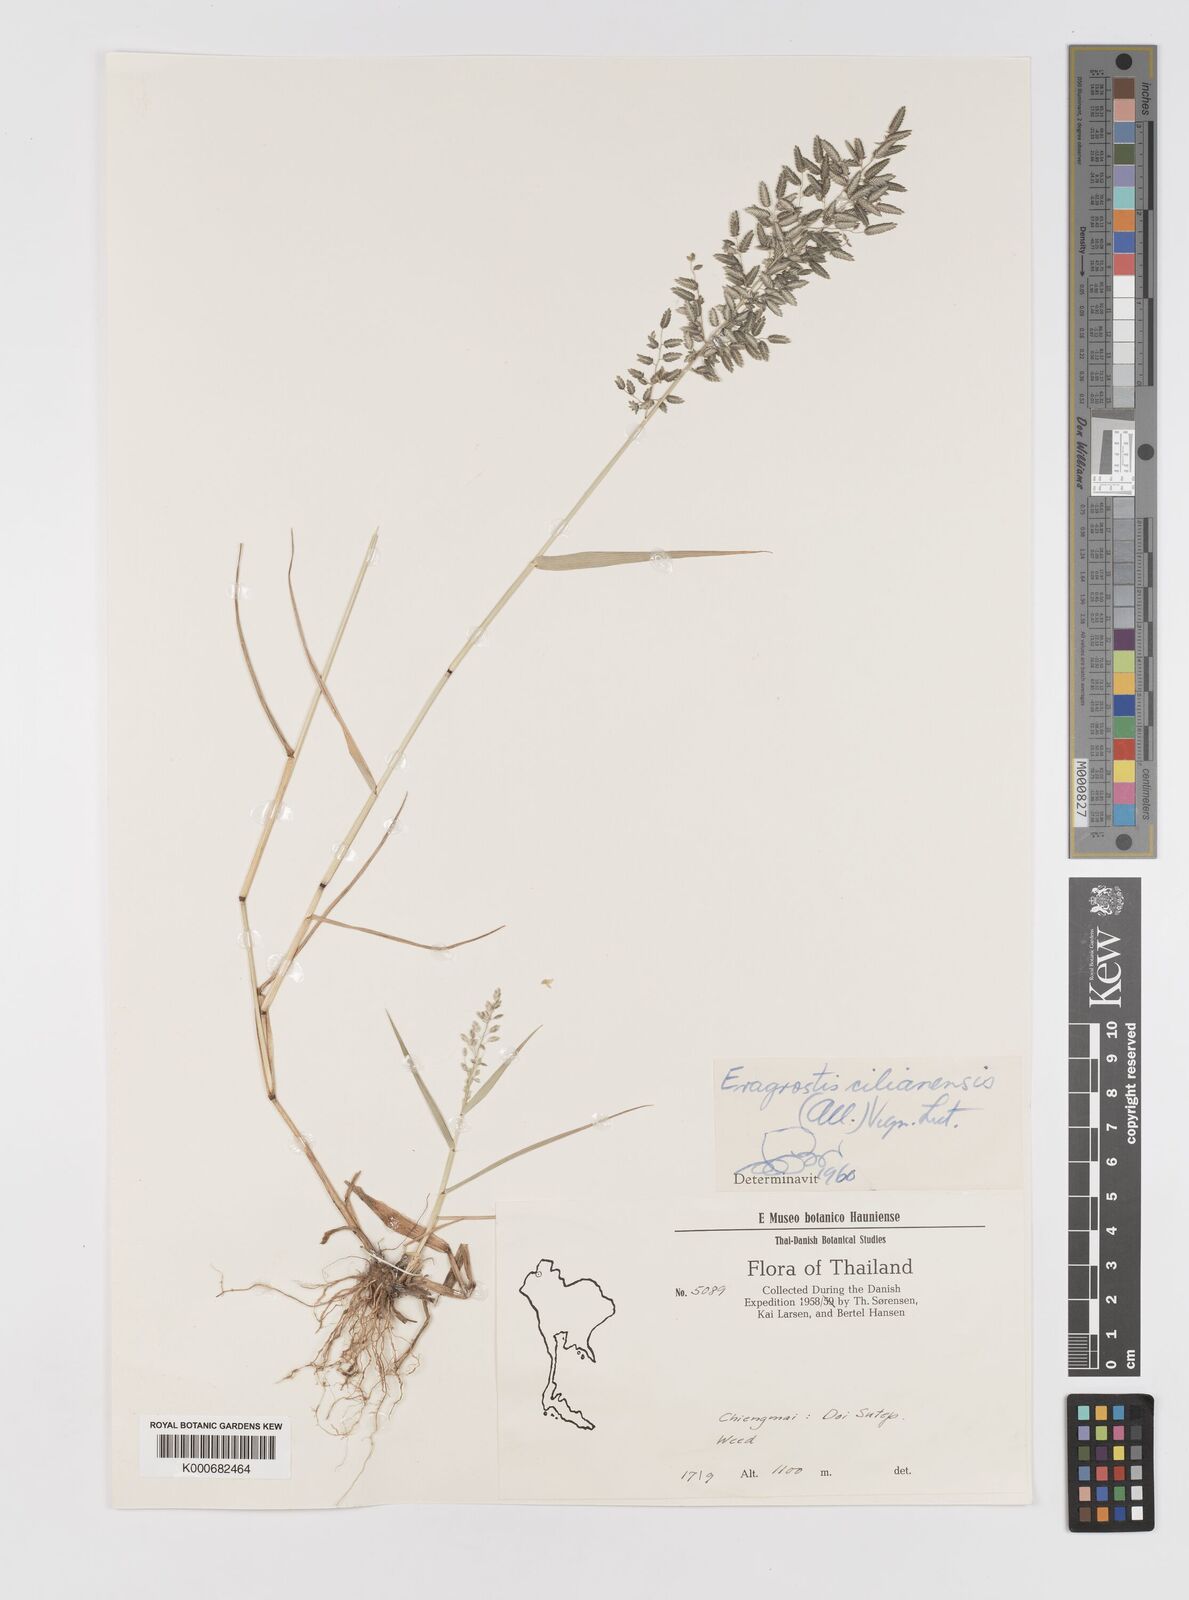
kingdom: Plantae
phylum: Tracheophyta
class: Liliopsida
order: Poales
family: Poaceae
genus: Eragrostis
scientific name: Eragrostis cilianensis
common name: Stinkgrass
